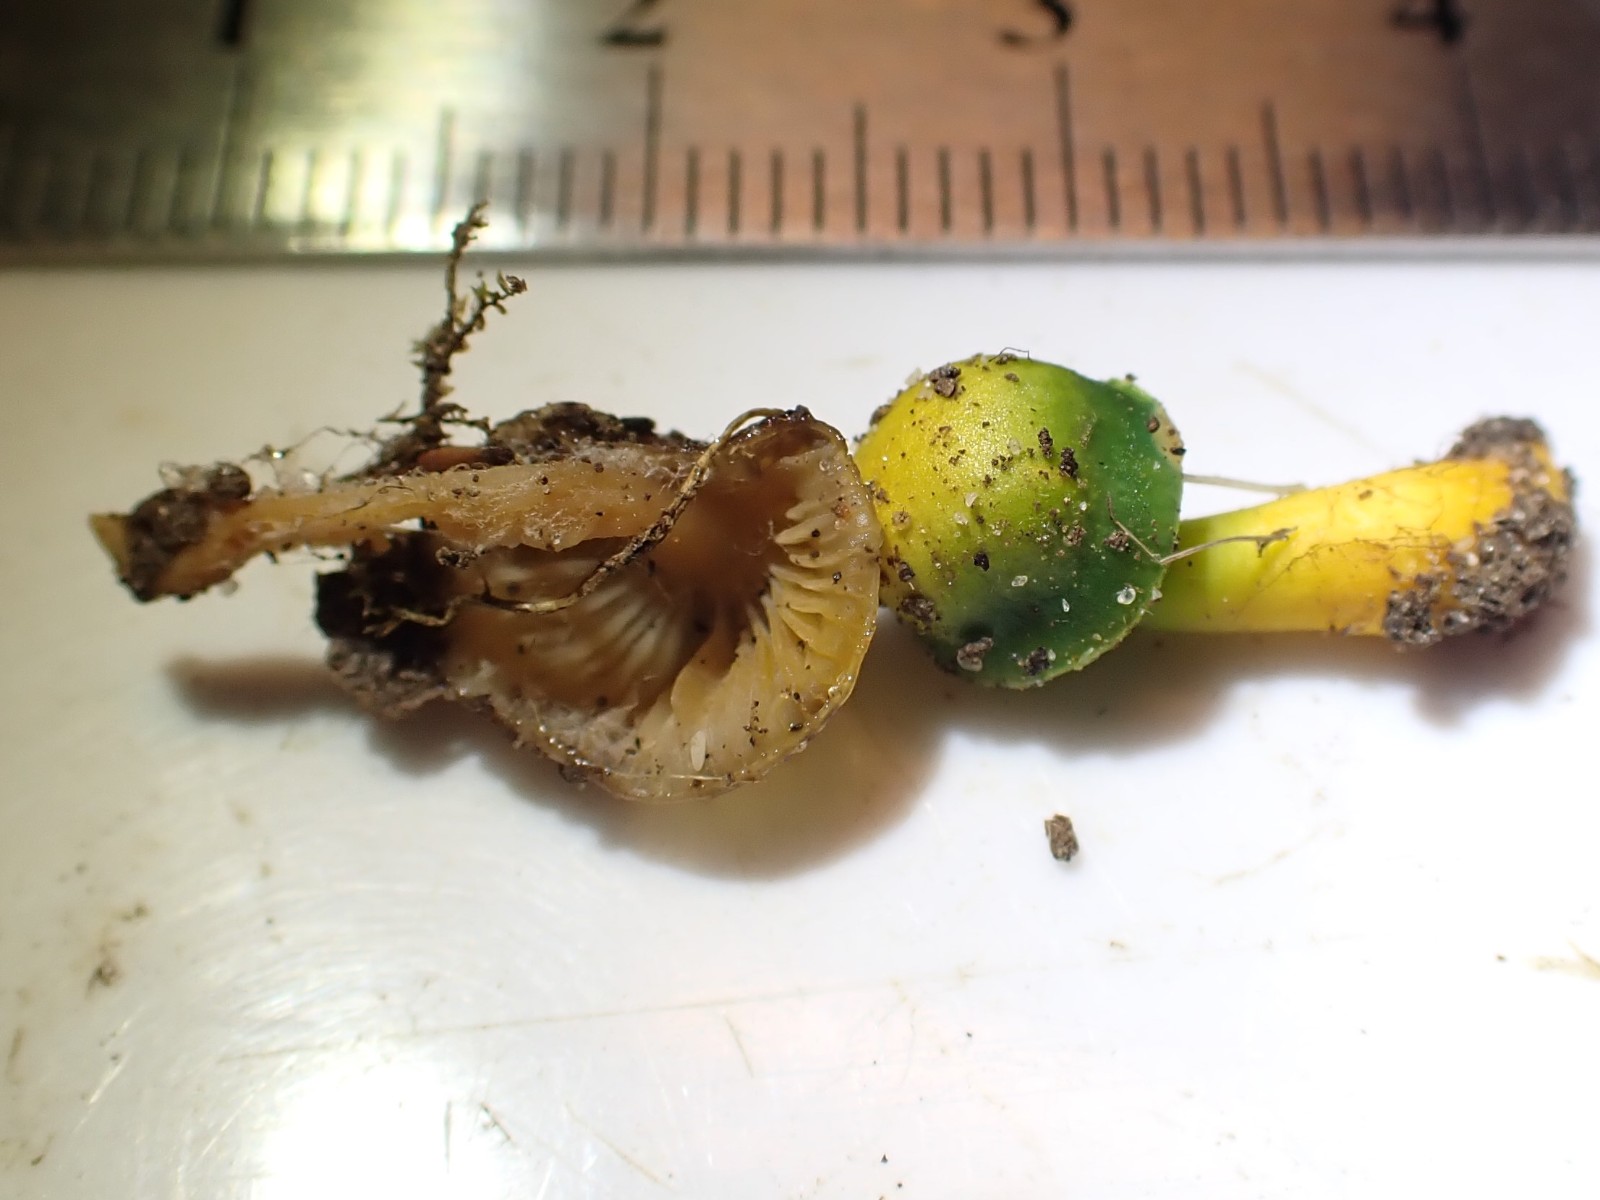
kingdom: Fungi
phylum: Basidiomycota
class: Agaricomycetes
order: Agaricales
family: Hygrophoraceae
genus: Gliophorus
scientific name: Gliophorus psittacinus
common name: papegøje-vokshat
